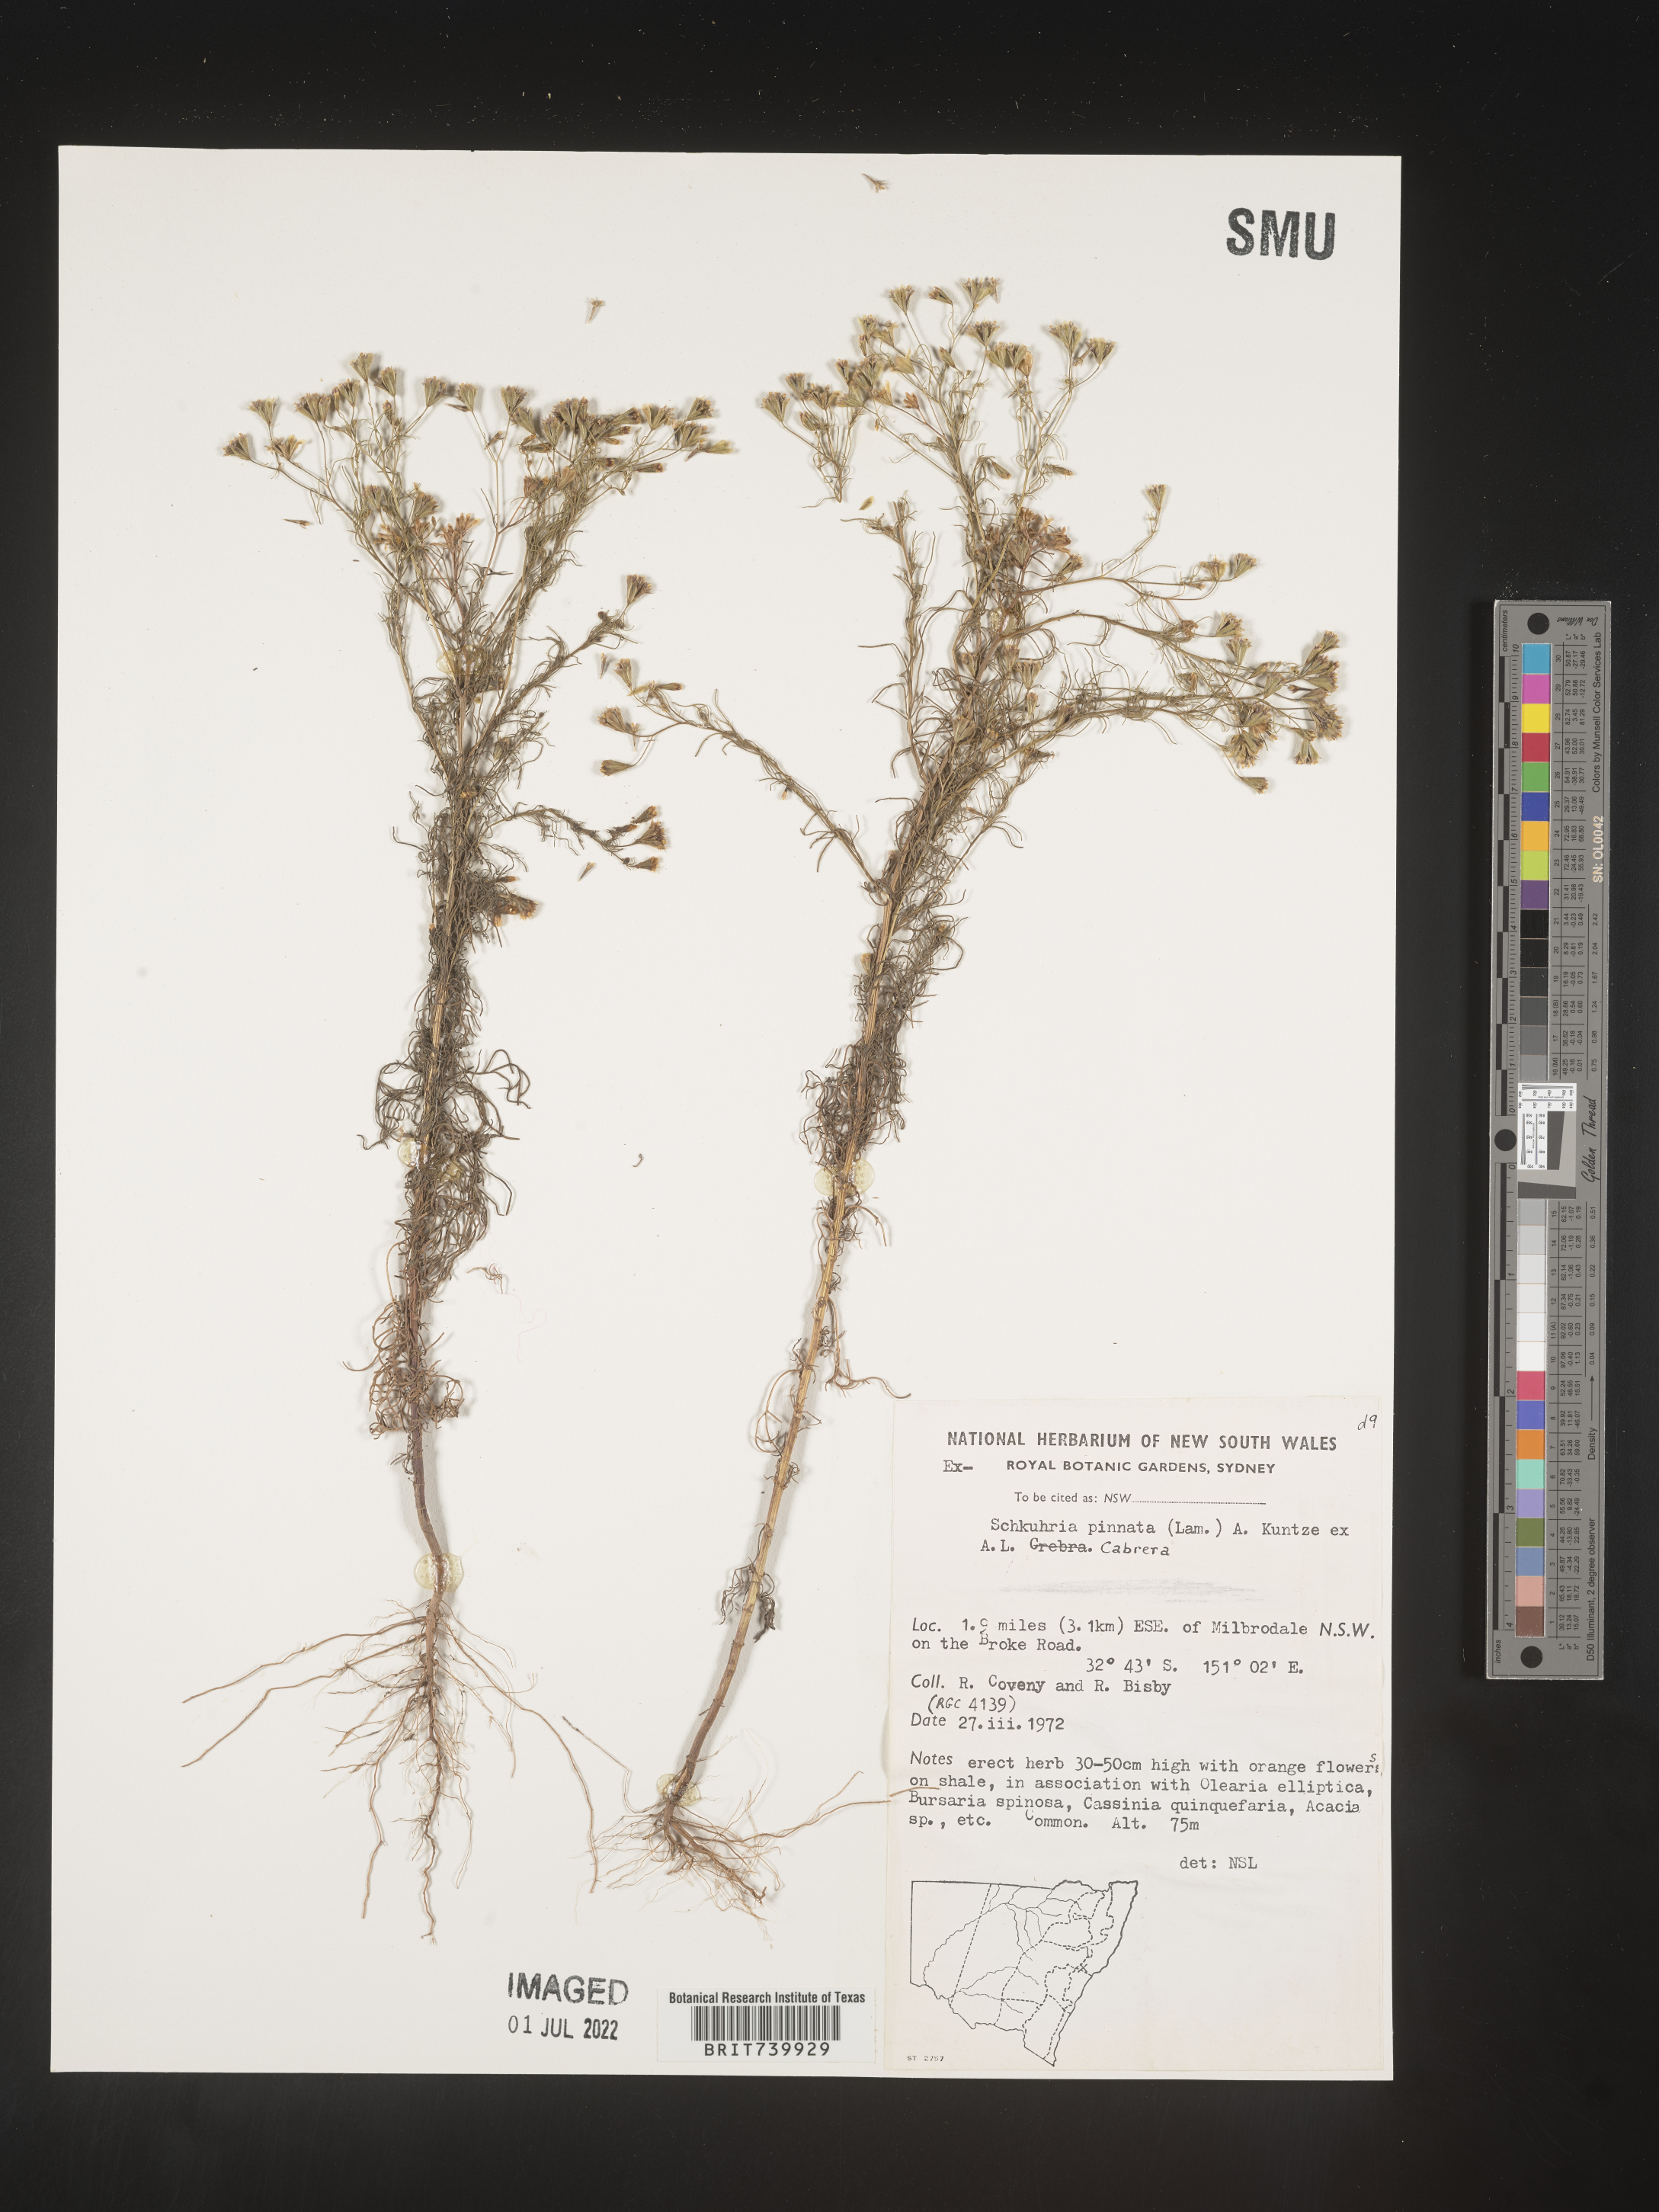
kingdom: Plantae
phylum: Tracheophyta
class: Magnoliopsida
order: Asterales
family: Asteraceae
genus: Schkuhria
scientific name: Schkuhria
